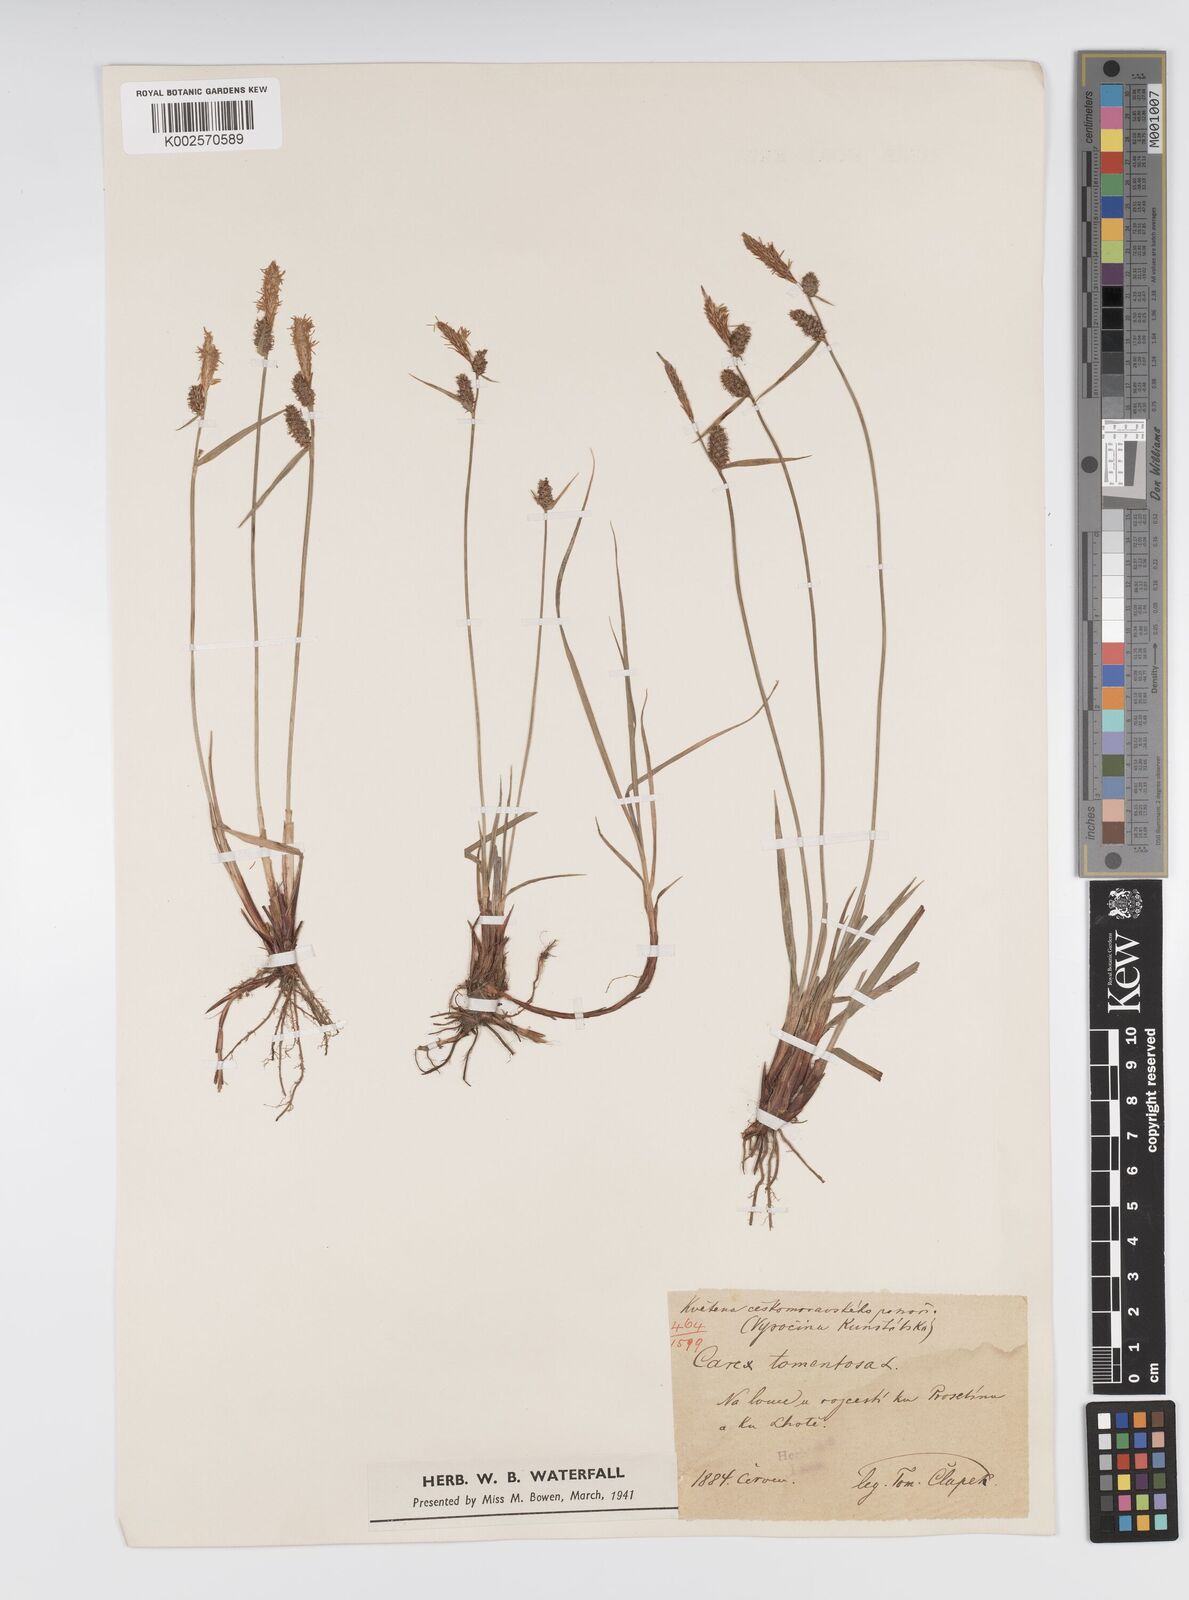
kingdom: Plantae
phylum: Tracheophyta
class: Liliopsida
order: Poales
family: Cyperaceae
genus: Carex
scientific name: Carex montana
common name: Soft-leaved sedge
